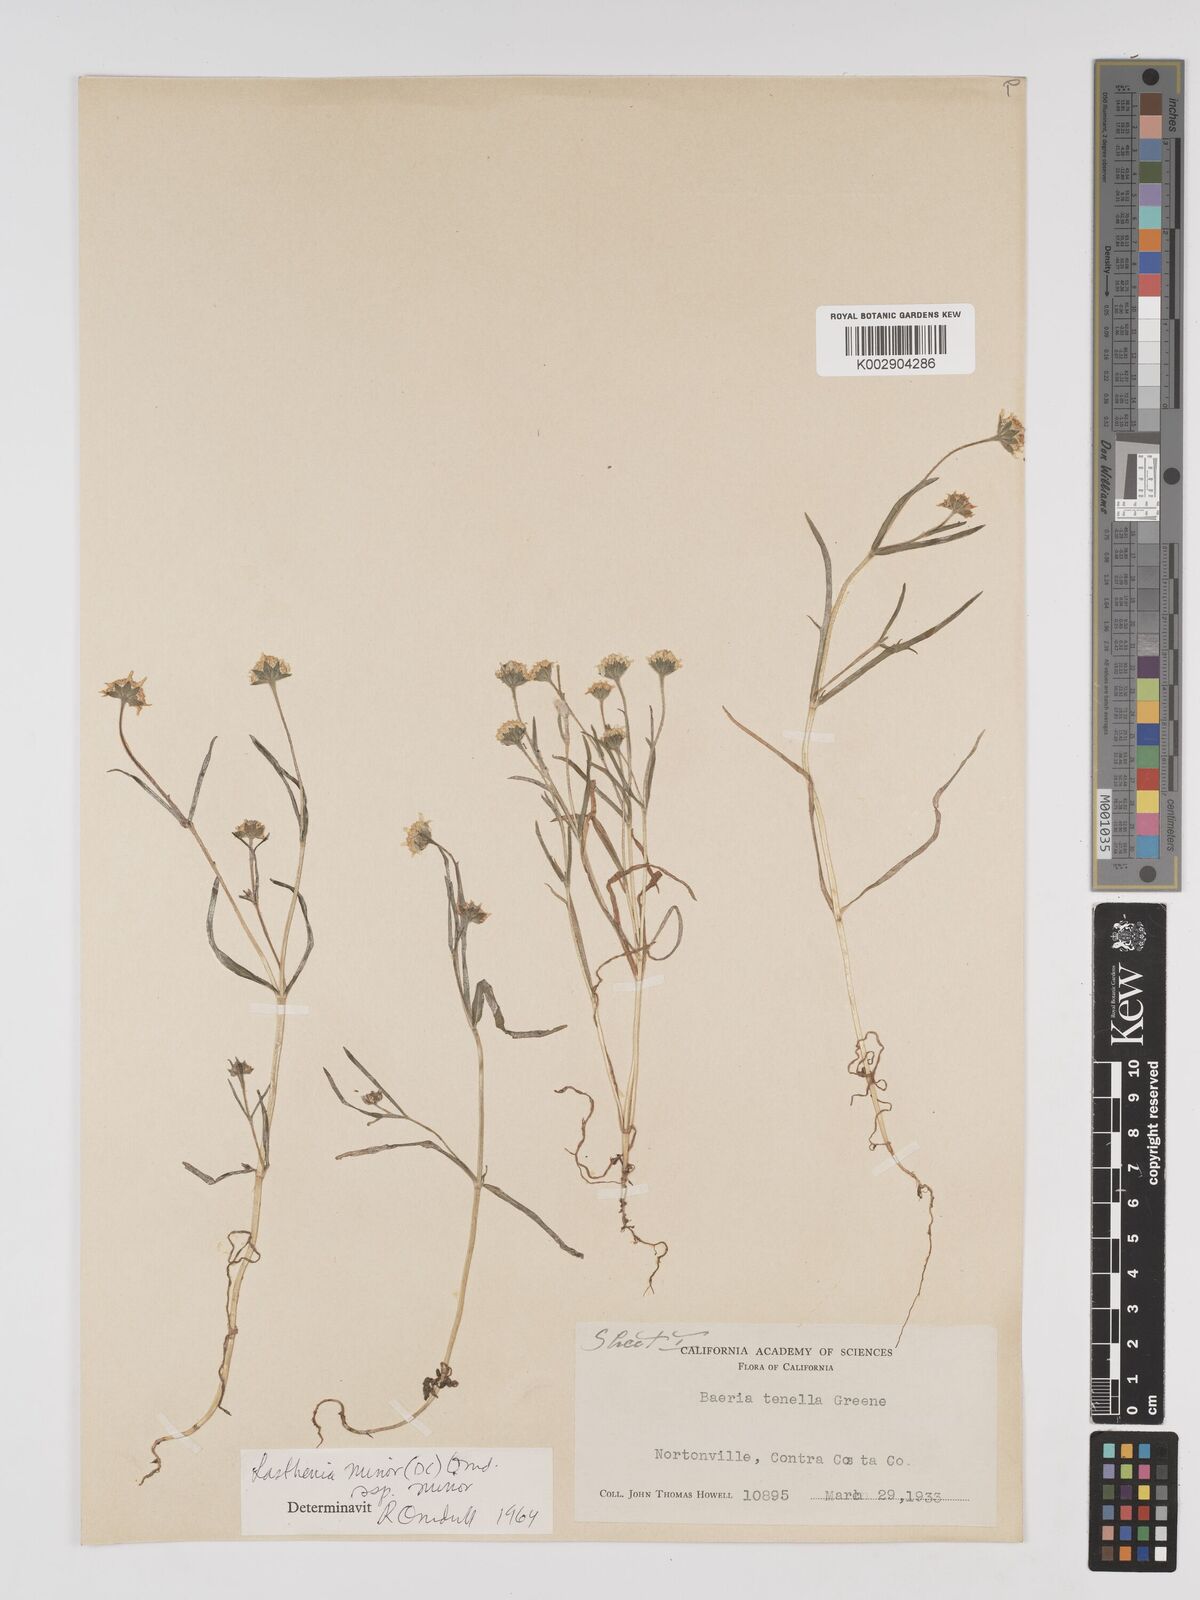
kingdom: Plantae
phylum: Tracheophyta
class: Magnoliopsida
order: Asterales
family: Asteraceae
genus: Lasthenia
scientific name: Lasthenia minor
